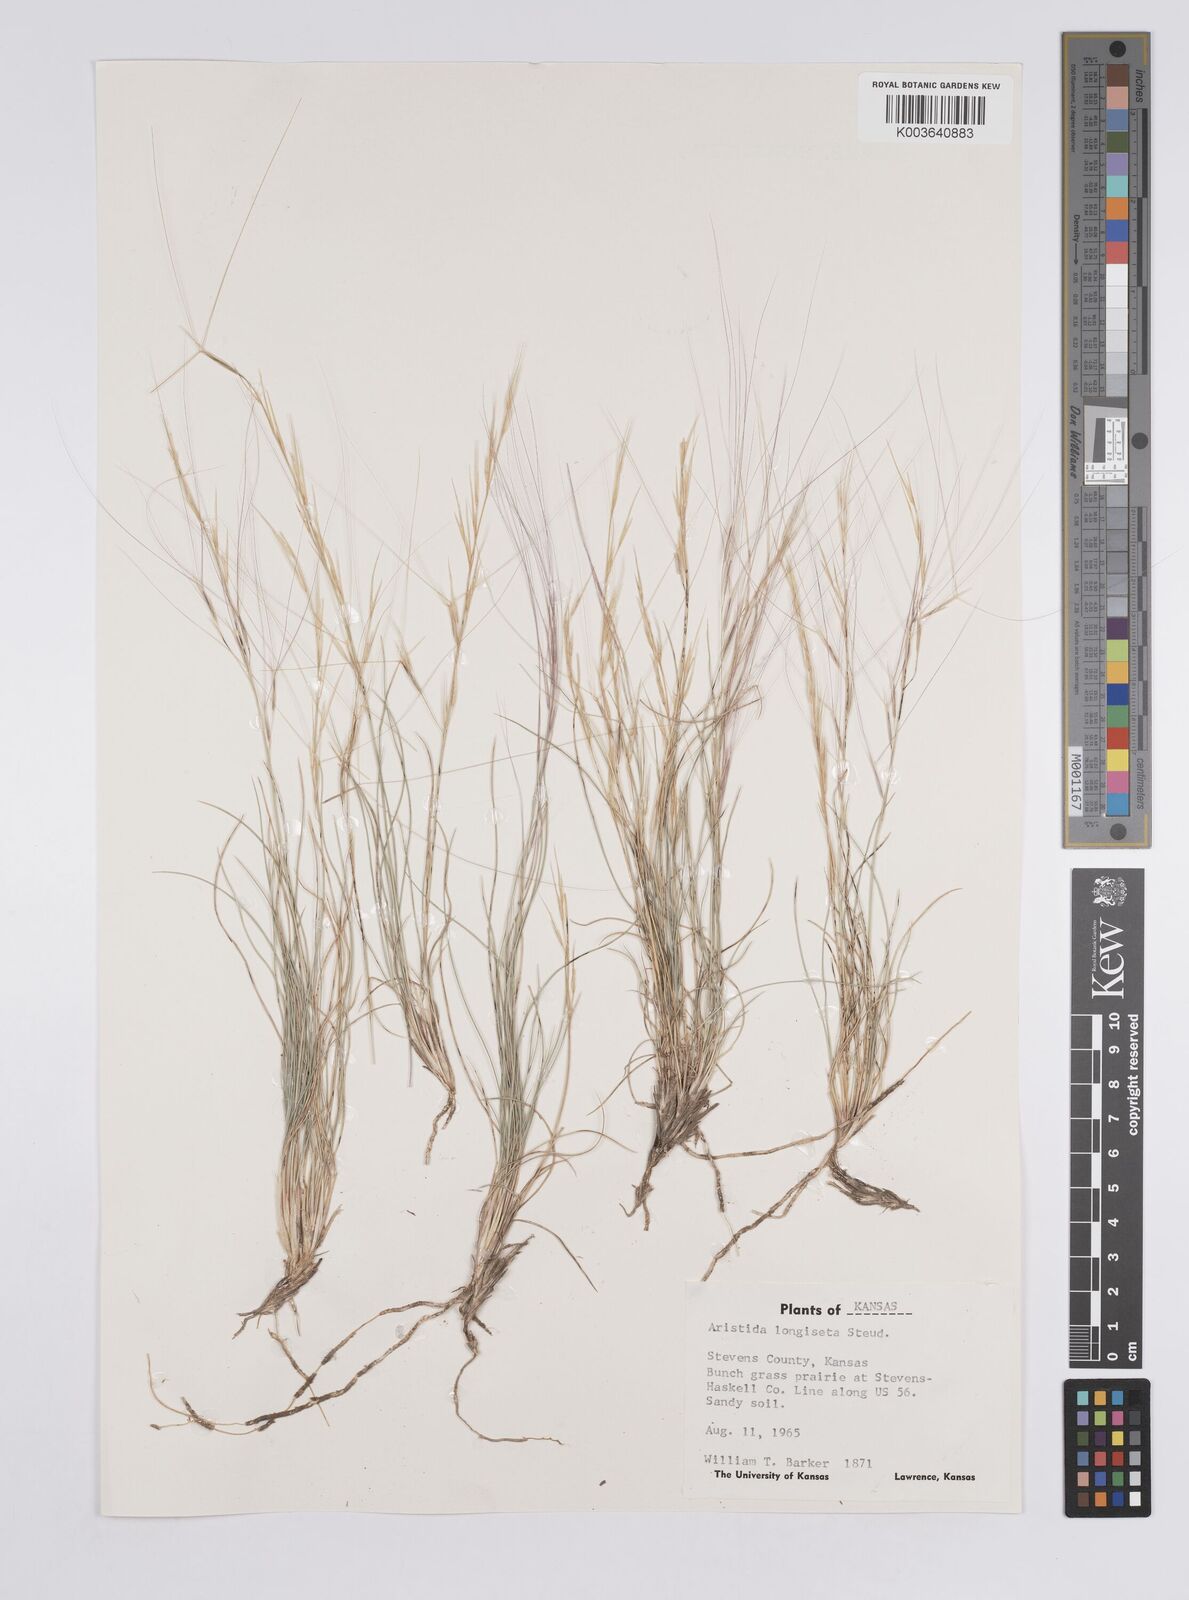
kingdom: Plantae
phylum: Tracheophyta
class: Liliopsida
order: Poales
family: Poaceae
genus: Aristida
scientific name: Aristida purpurea
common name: Purple threeawn
